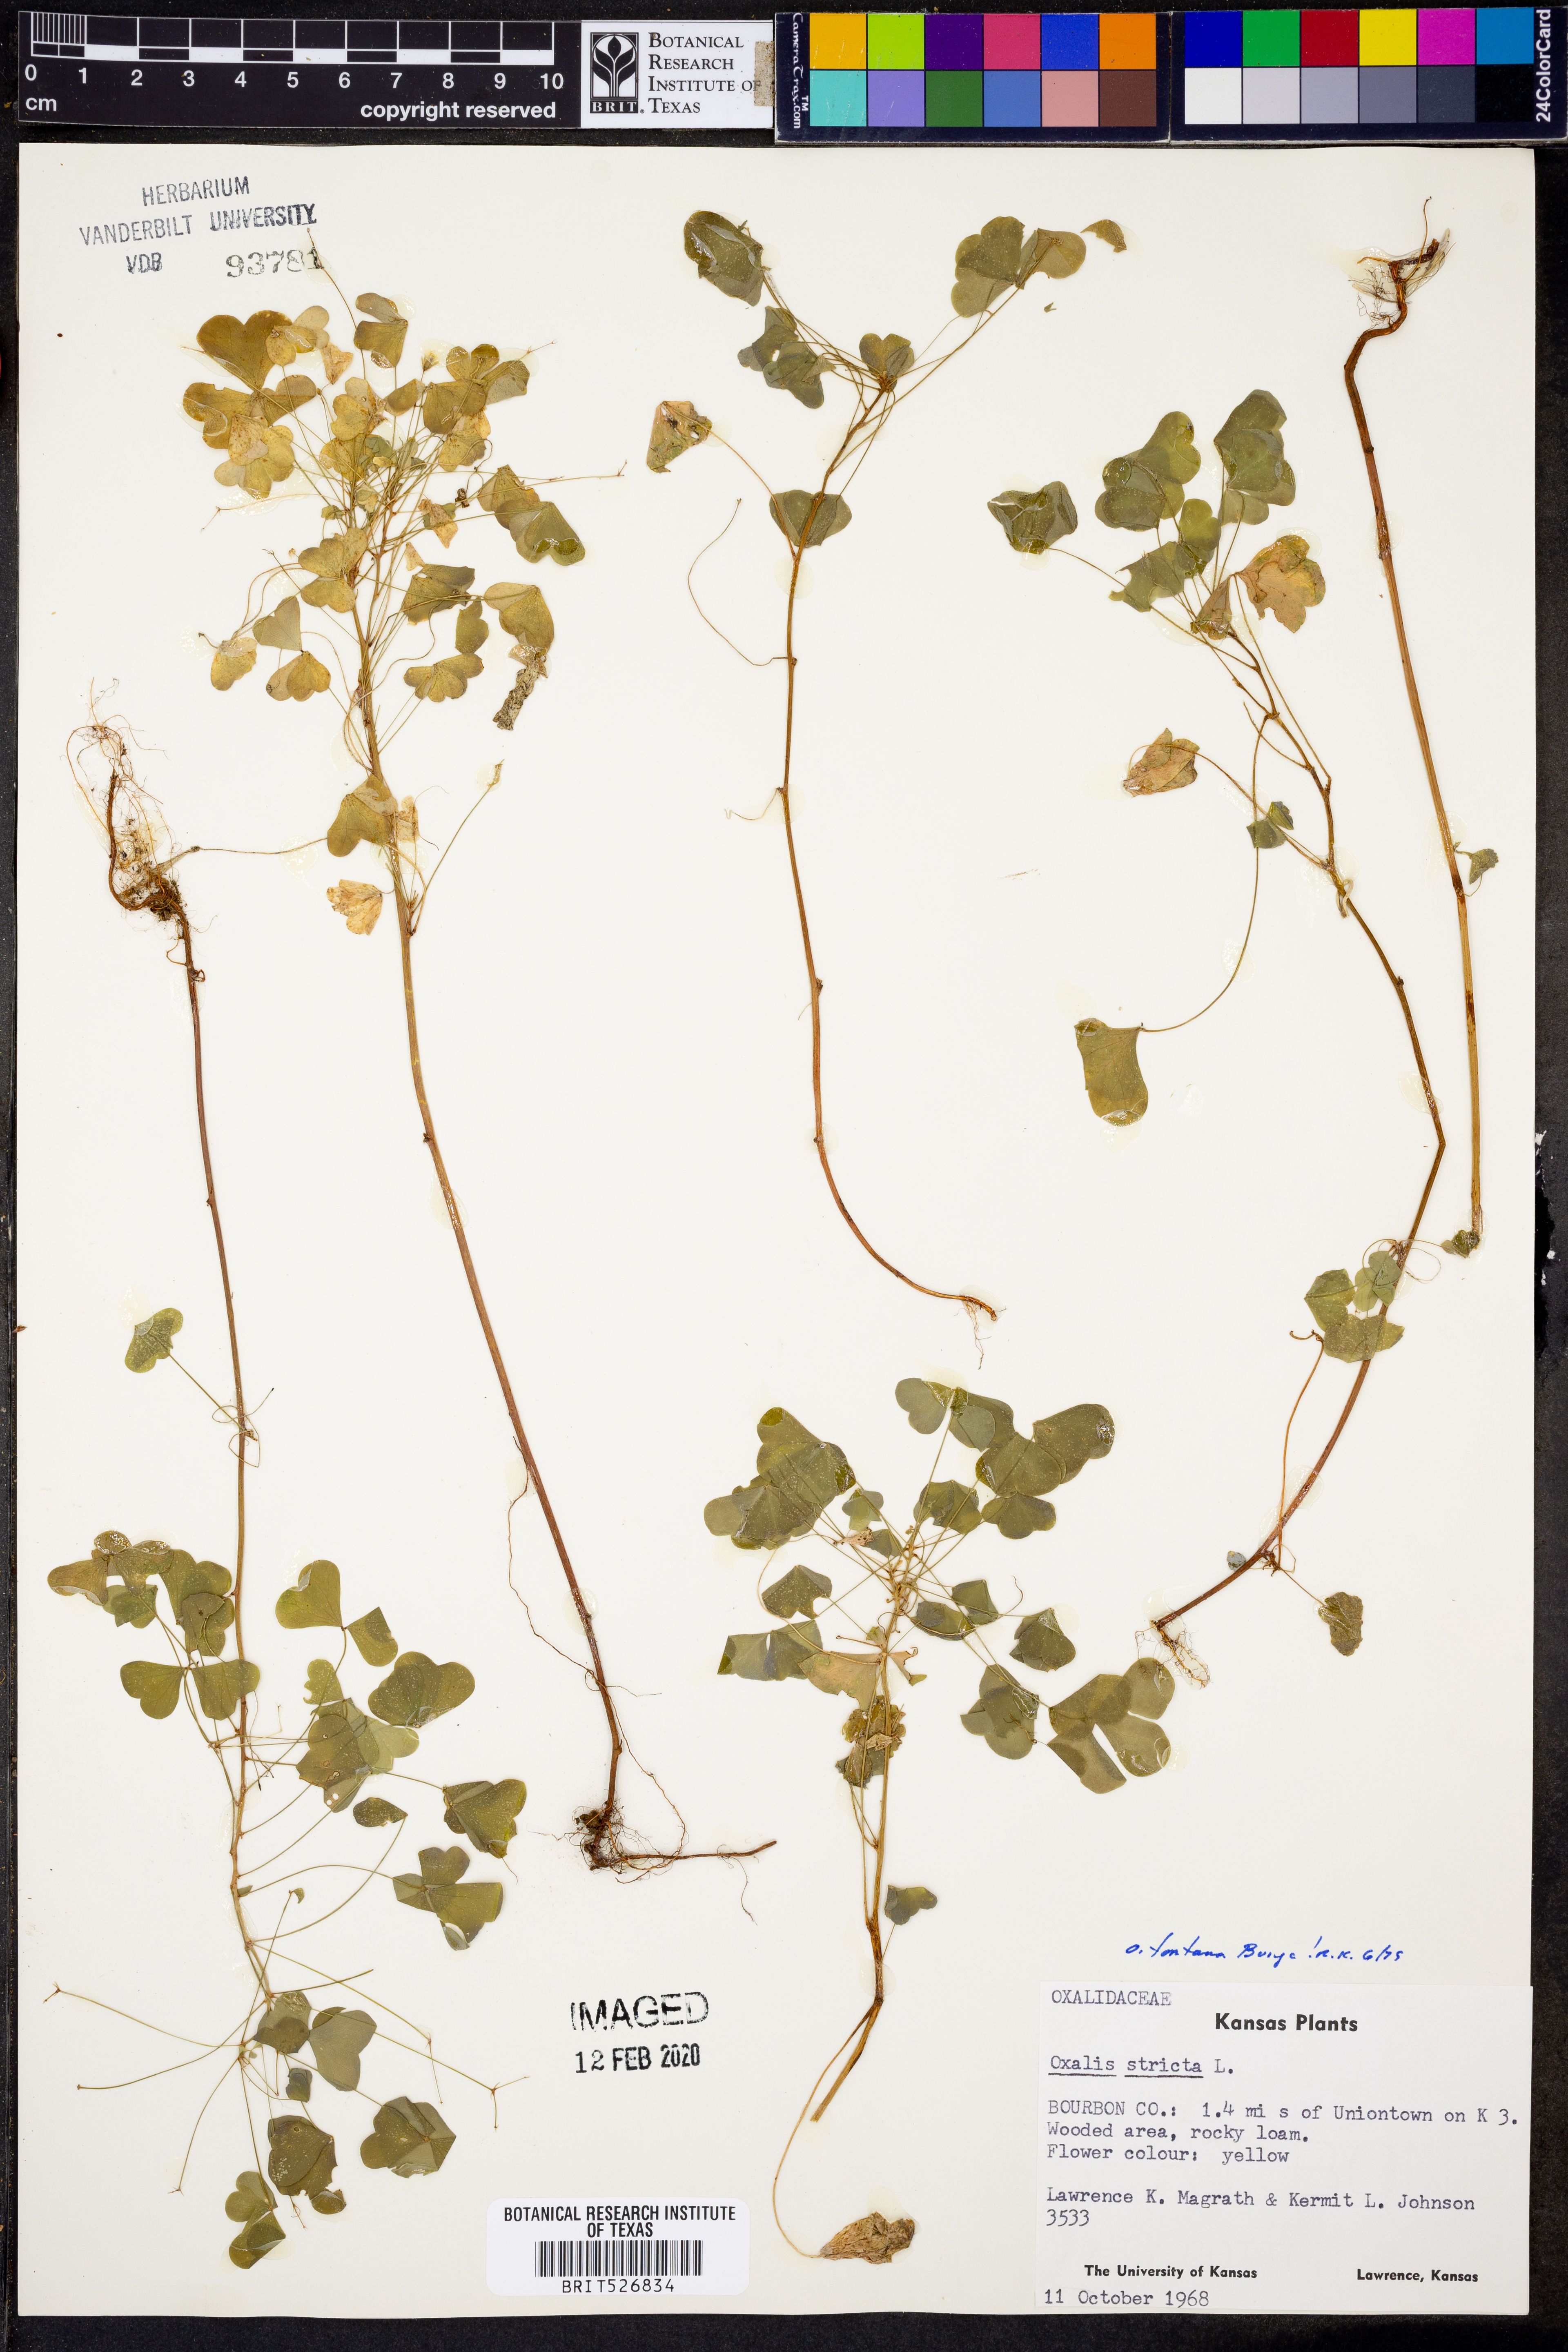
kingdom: Plantae
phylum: Tracheophyta
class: Magnoliopsida
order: Oxalidales
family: Oxalidaceae
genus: Oxalis
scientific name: Oxalis stricta
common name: Upright yellow-sorrel
